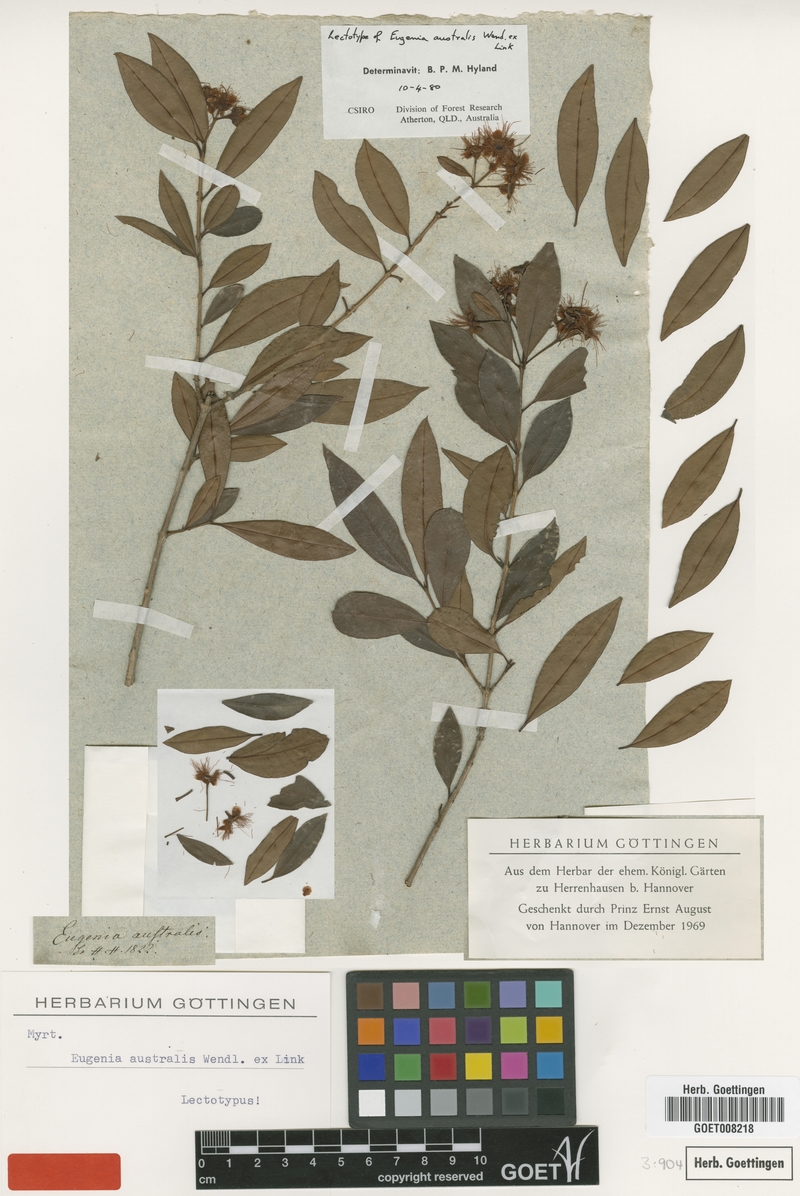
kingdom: Plantae
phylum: Tracheophyta
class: Magnoliopsida
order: Myrtales
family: Myrtaceae
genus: Syzygium
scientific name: Syzygium australe
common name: Australian brush-cherry
